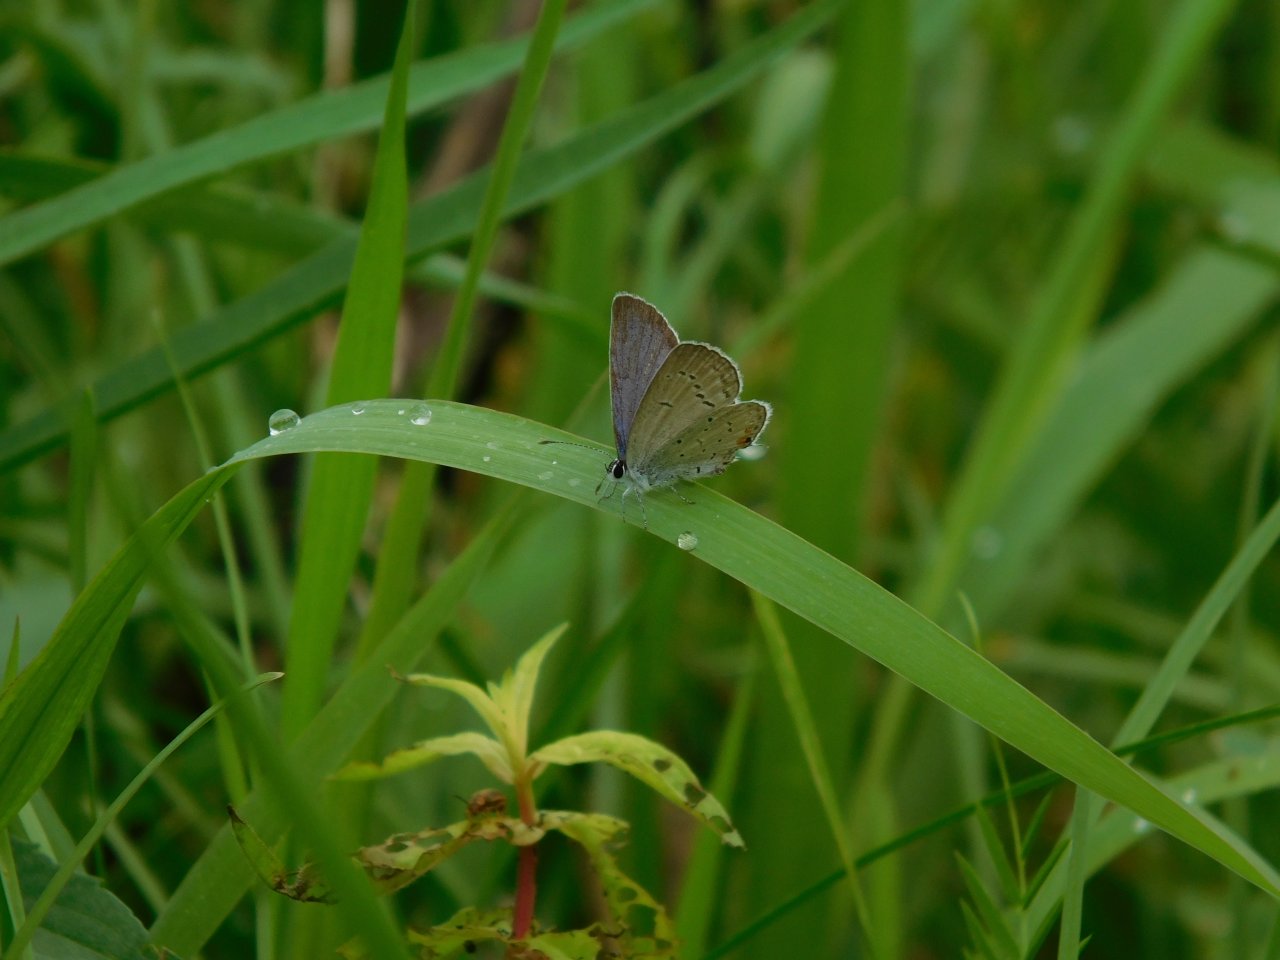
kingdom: Animalia
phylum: Arthropoda
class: Insecta
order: Lepidoptera
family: Lycaenidae
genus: Elkalyce
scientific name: Elkalyce comyntas
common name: Eastern Tailed-Blue
